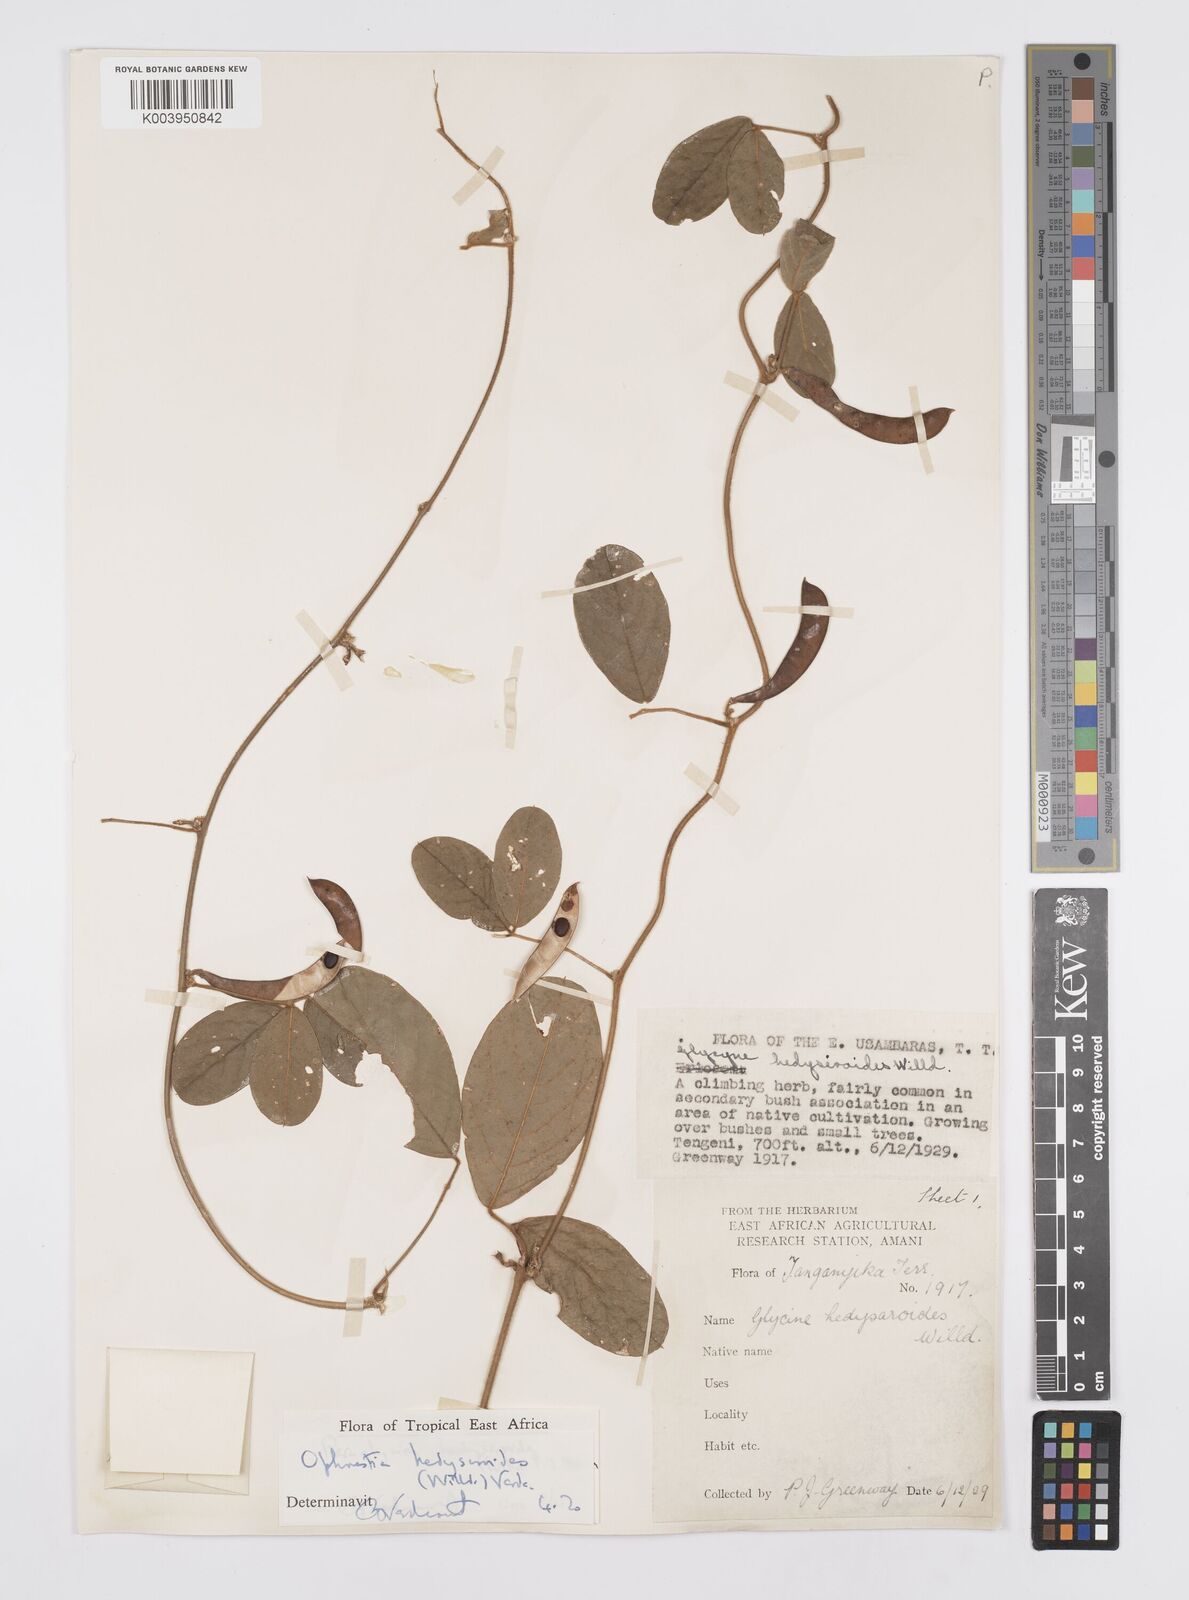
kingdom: Plantae
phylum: Tracheophyta
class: Magnoliopsida
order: Fabales
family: Fabaceae
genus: Ophrestia
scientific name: Ophrestia hedysaroides
